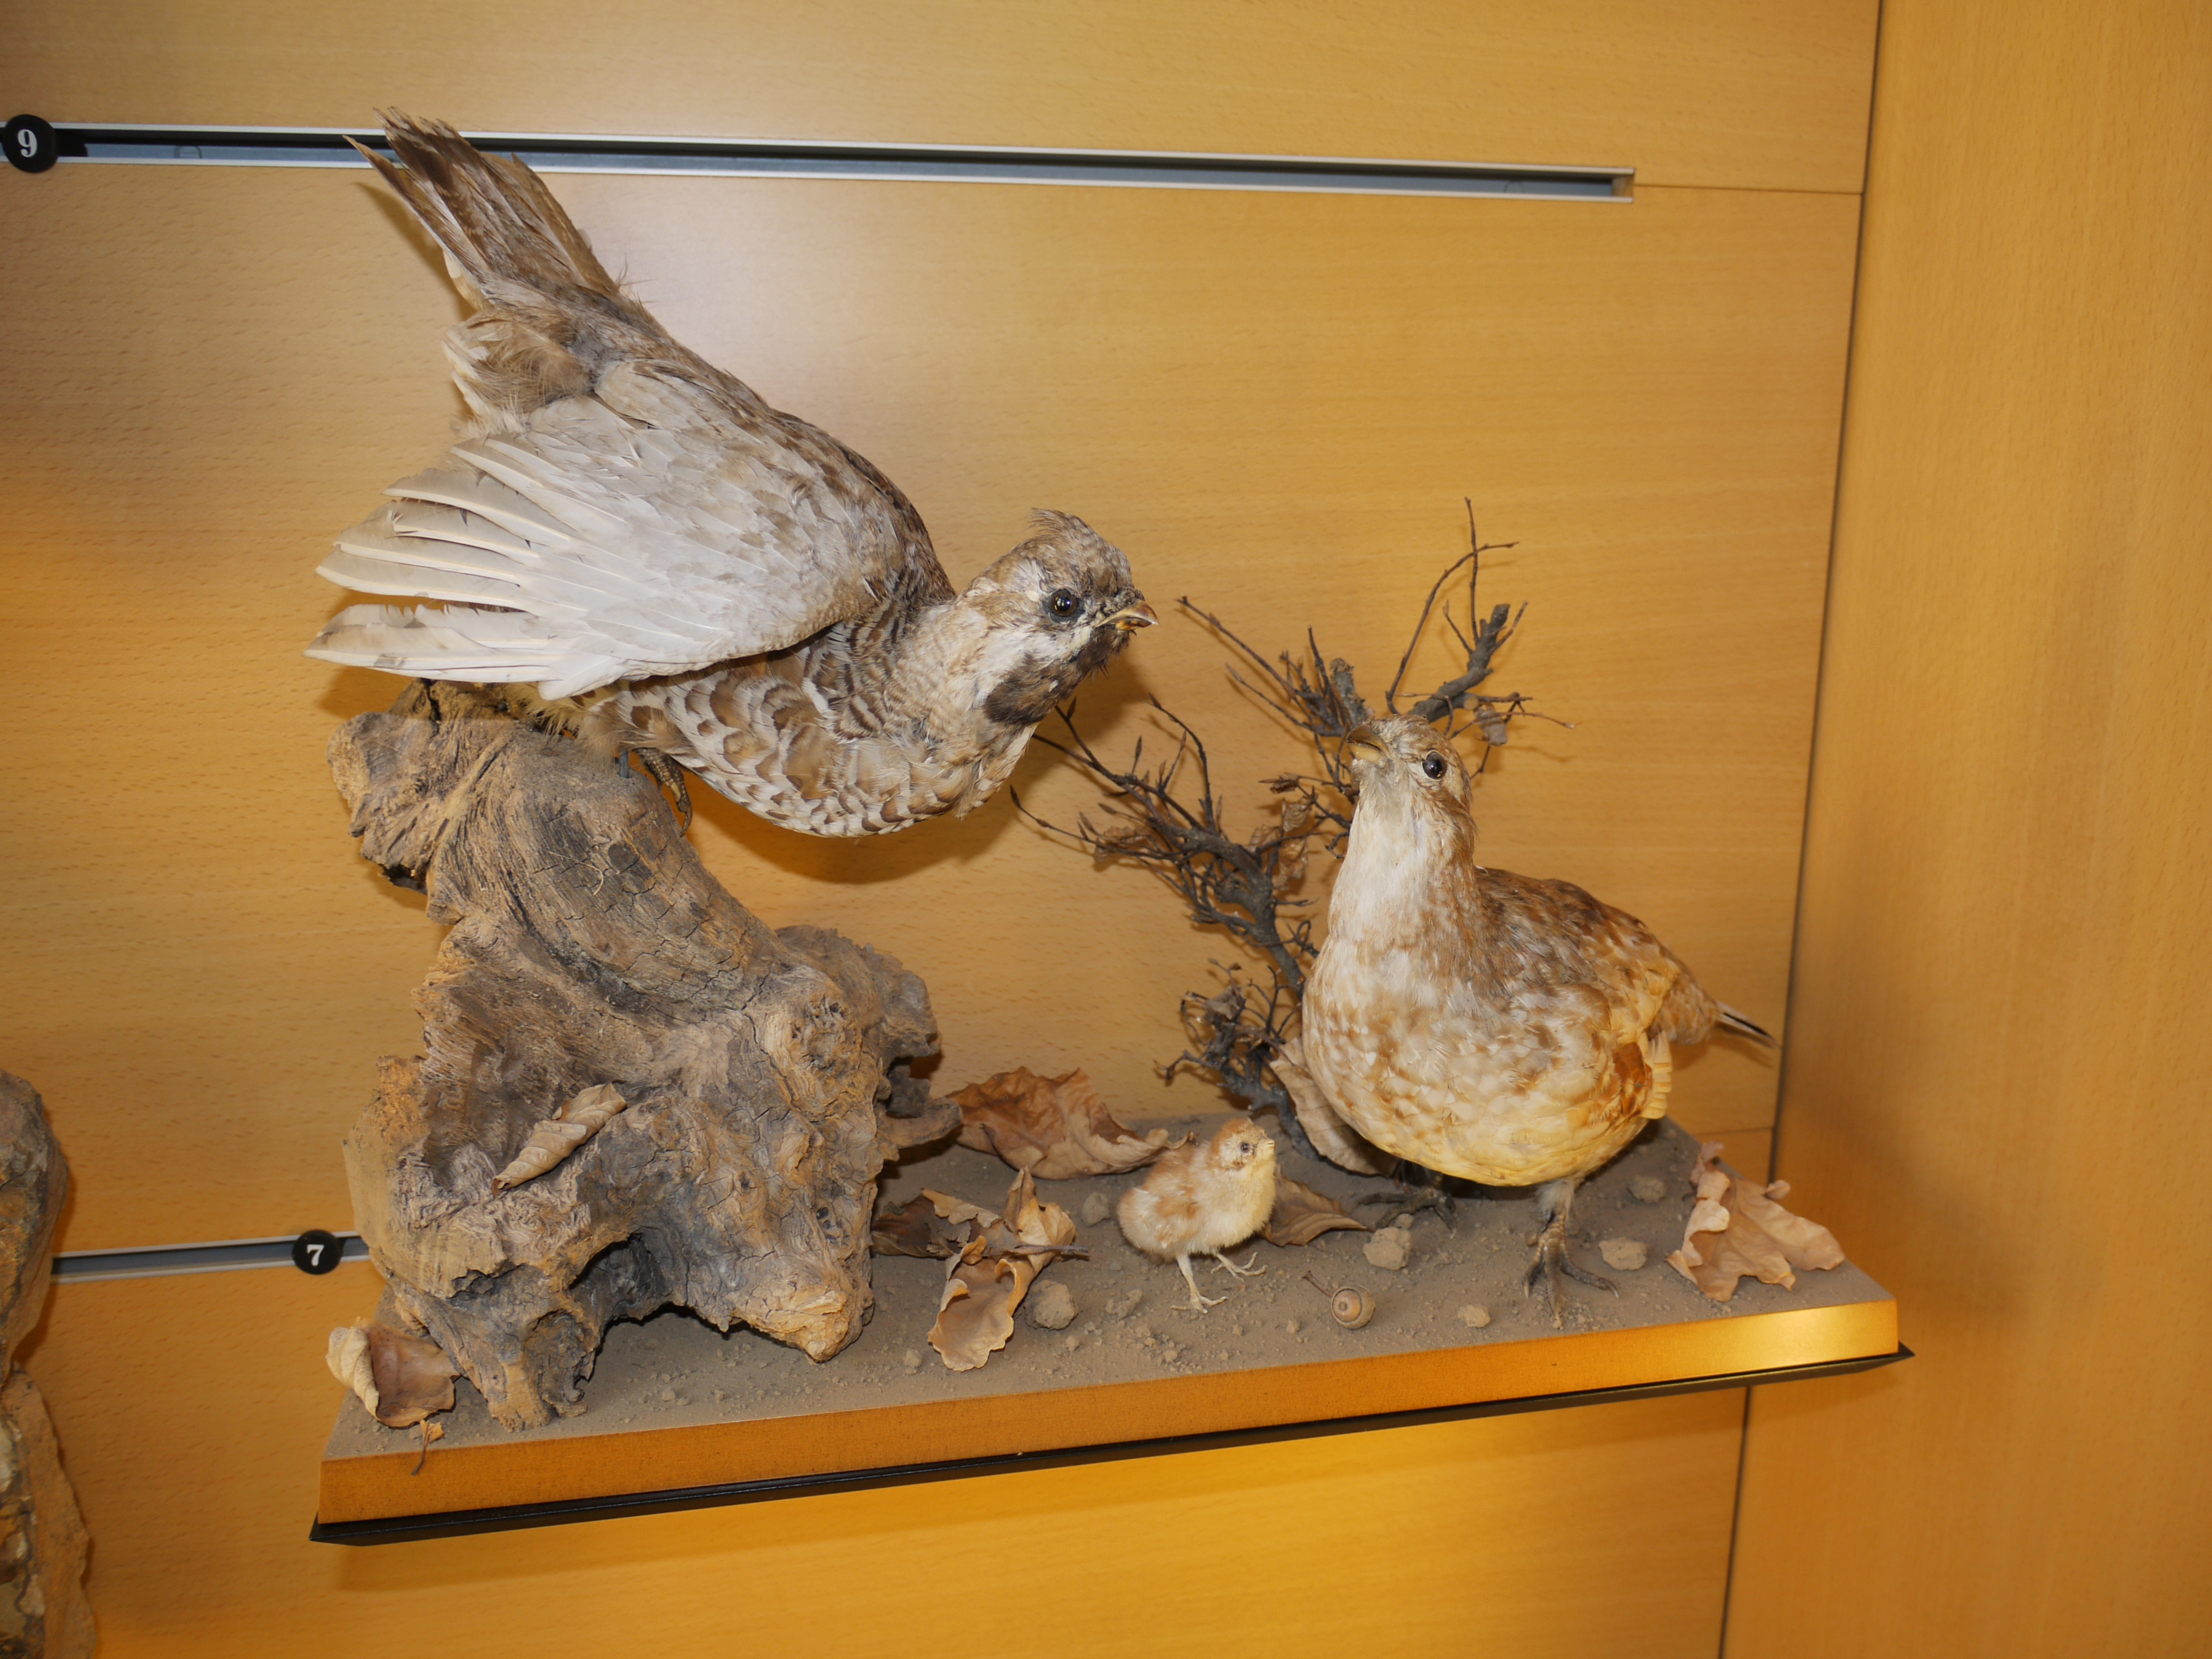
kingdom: Animalia
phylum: Chordata
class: Aves
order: Galliformes
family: Phasianidae
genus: Tetrastes
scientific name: Tetrastes bonasia
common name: Hazel grouse
